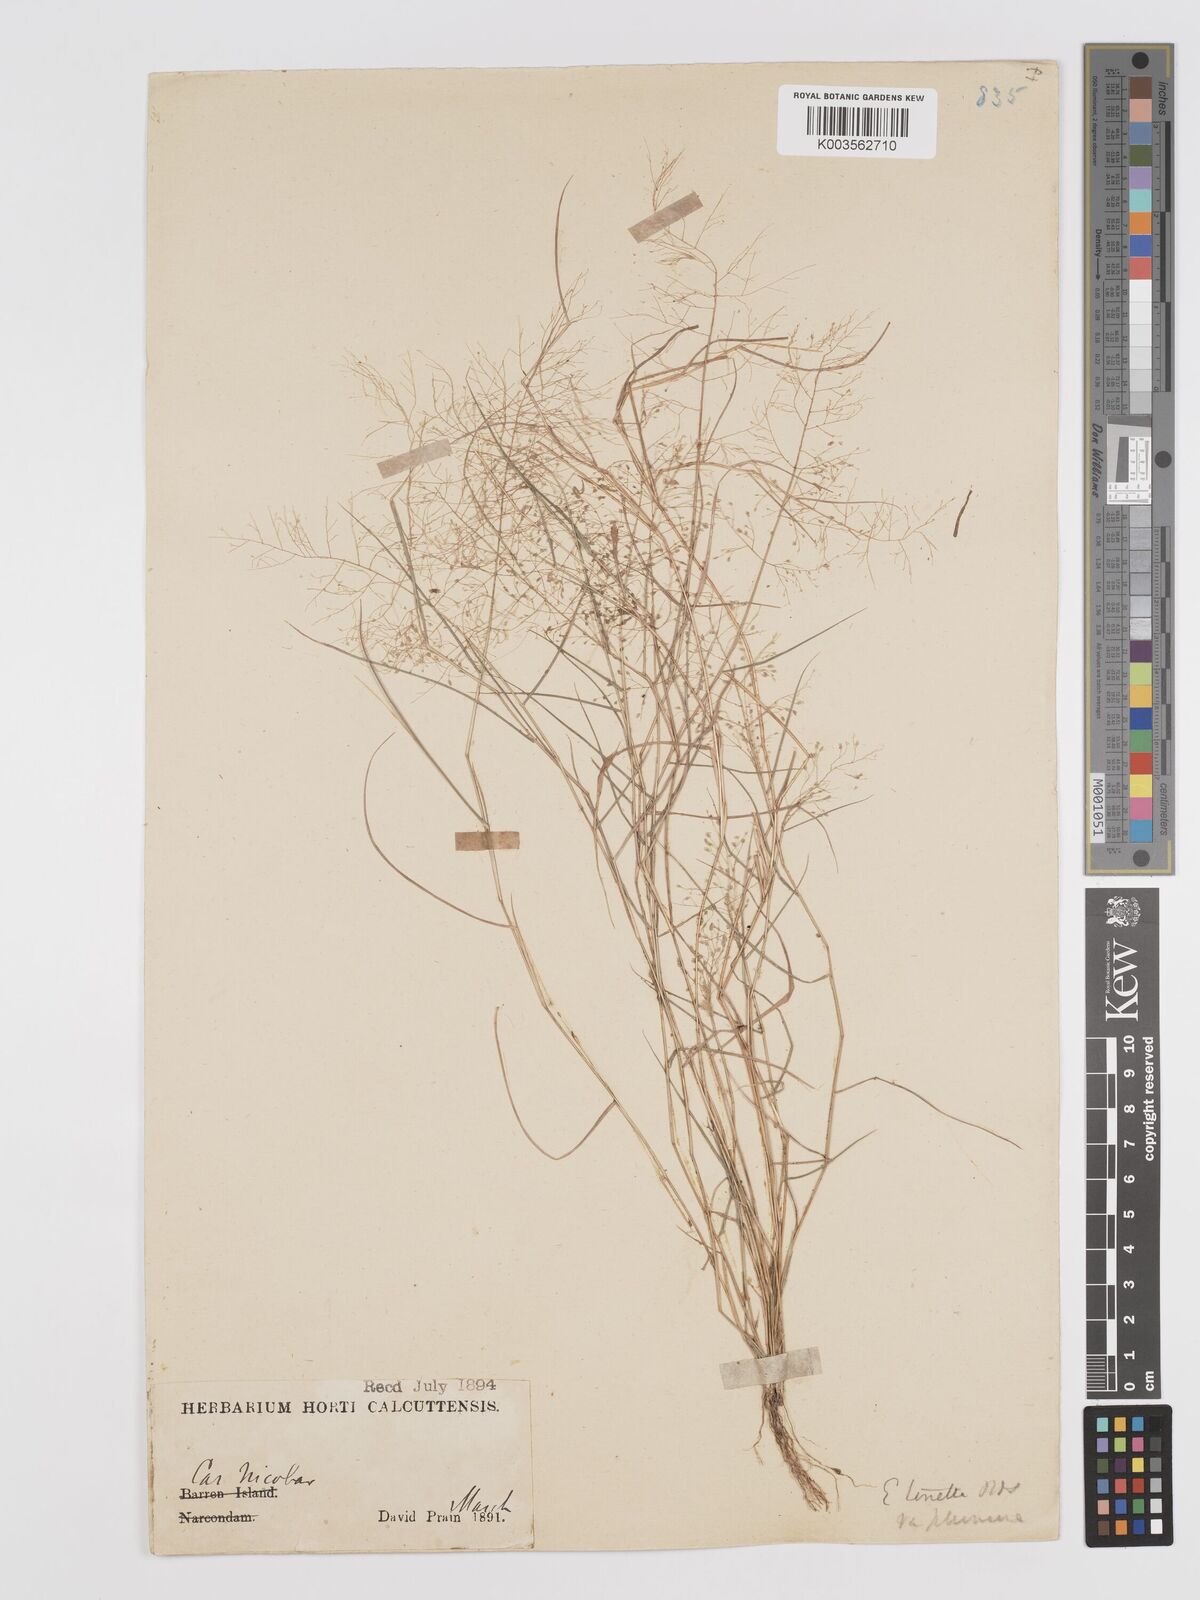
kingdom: Plantae
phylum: Tracheophyta
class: Liliopsida
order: Poales
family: Poaceae
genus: Eragrostis
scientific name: Eragrostis tenella
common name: Japanese lovegrass
